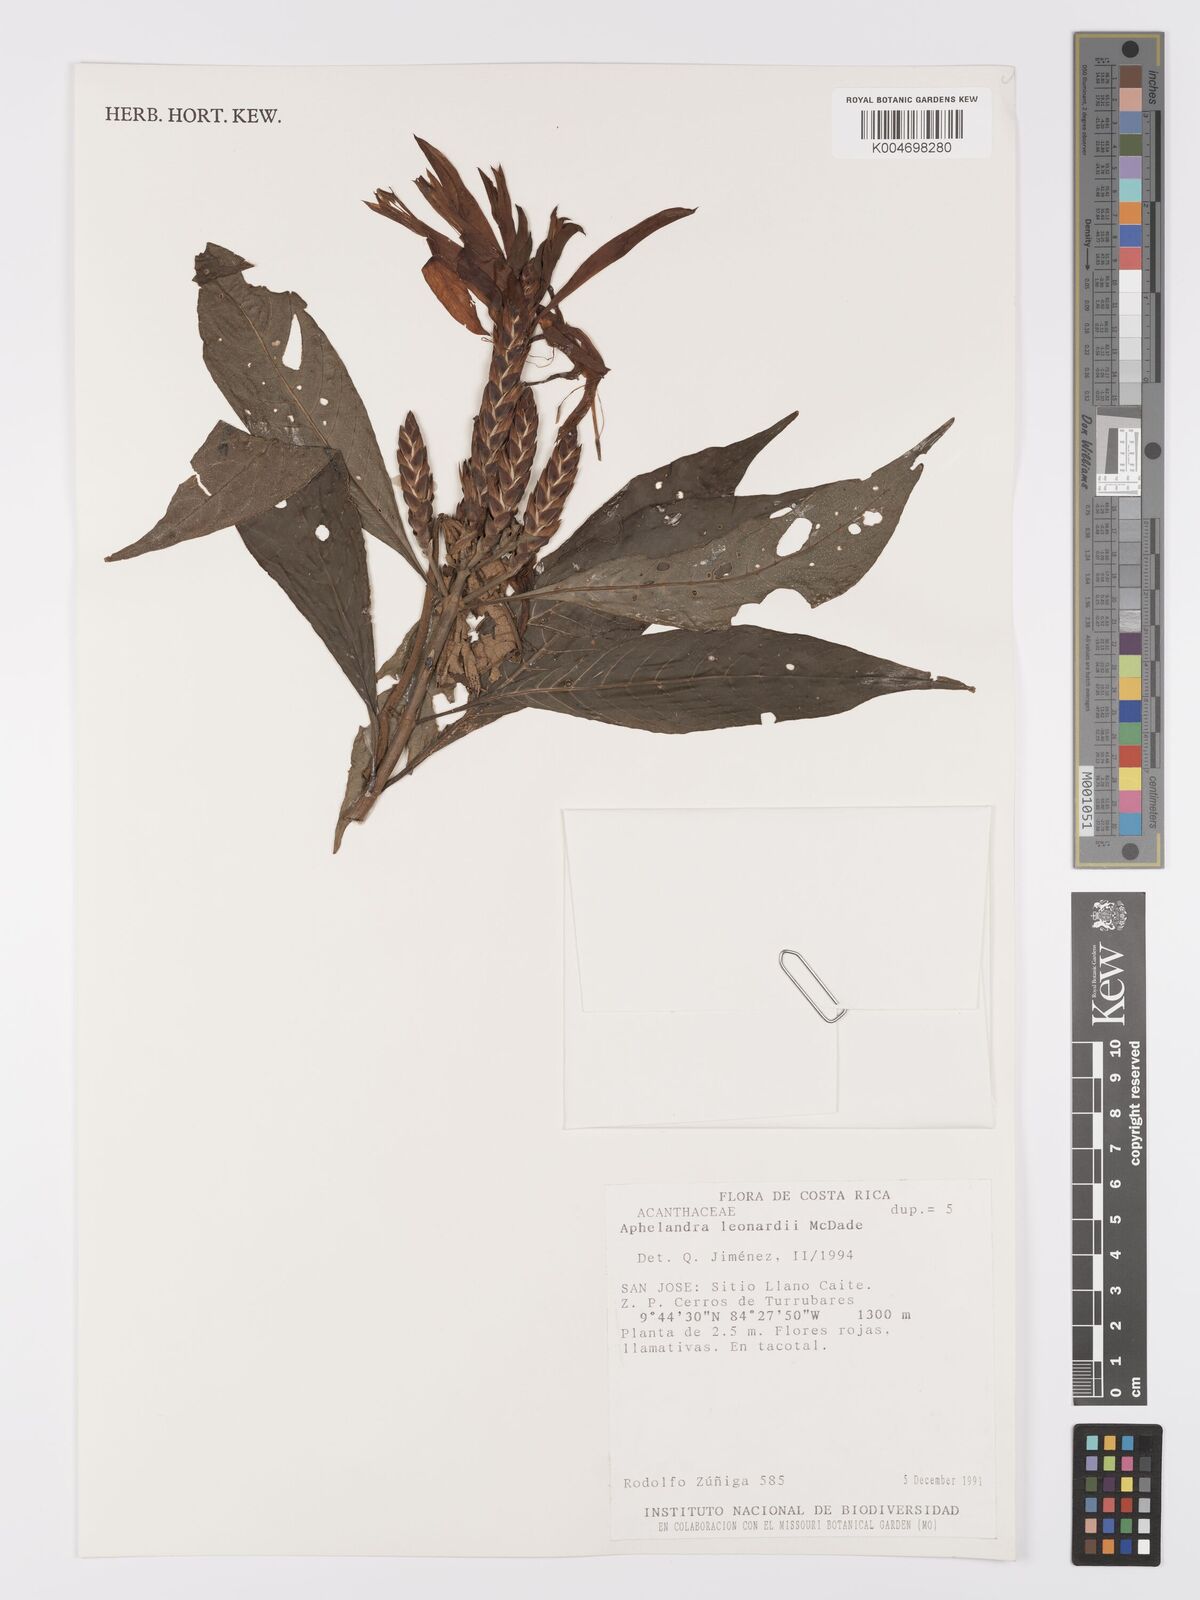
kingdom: Plantae
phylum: Tracheophyta
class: Magnoliopsida
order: Lamiales
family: Acanthaceae
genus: Aphelandra
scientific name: Aphelandra leonardii
